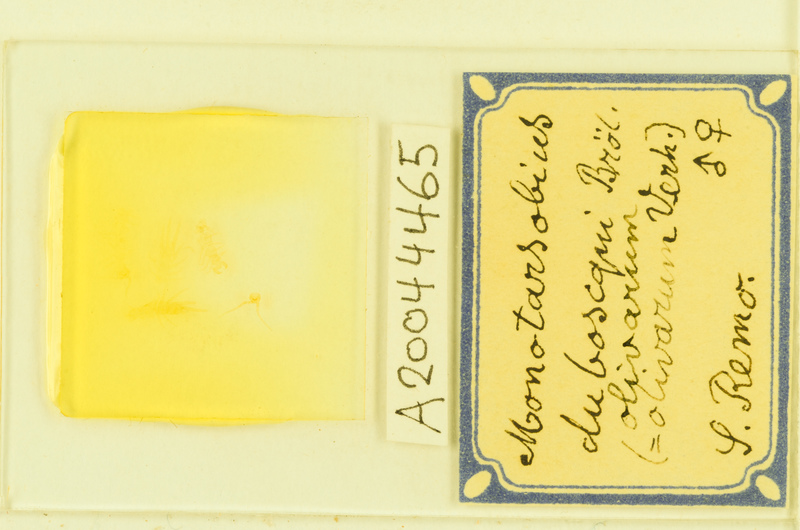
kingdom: Animalia
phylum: Arthropoda
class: Chilopoda
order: Lithobiomorpha
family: Lithobiidae
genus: Monotarsobius
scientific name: Monotarsobius
